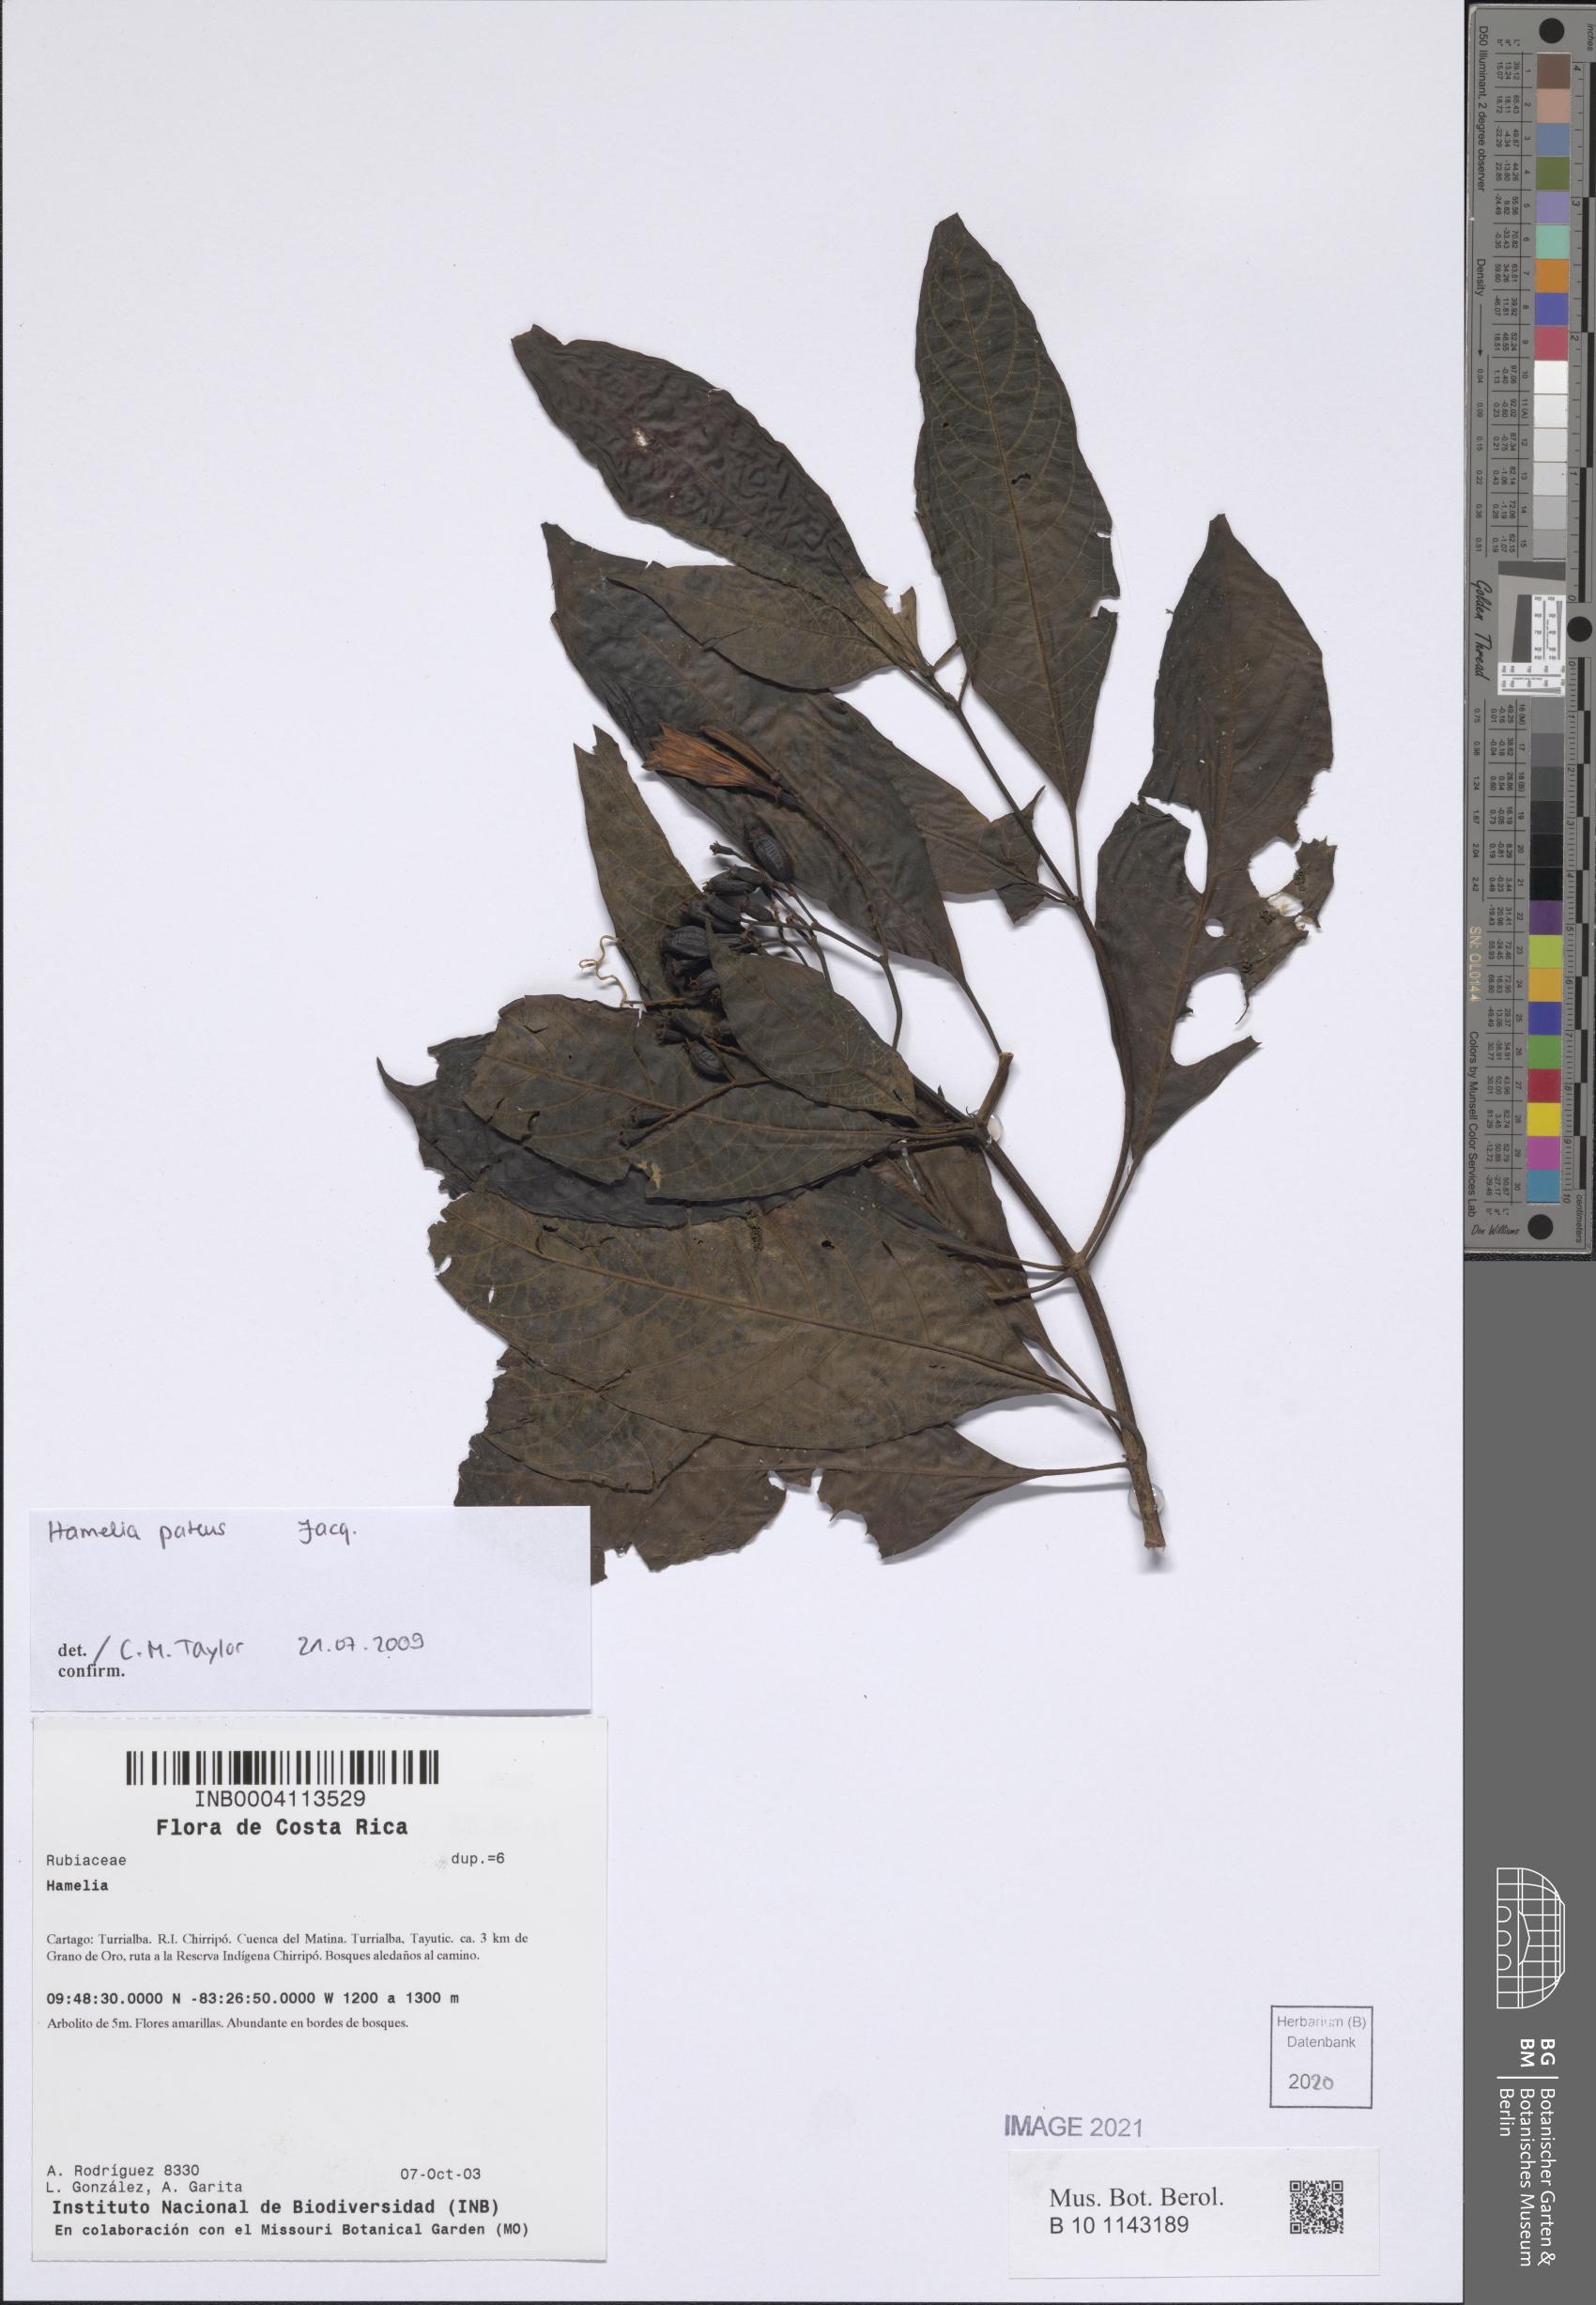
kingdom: Plantae
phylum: Tracheophyta
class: Magnoliopsida
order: Gentianales
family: Rubiaceae
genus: Hamelia
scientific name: Hamelia patens
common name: Redhead
